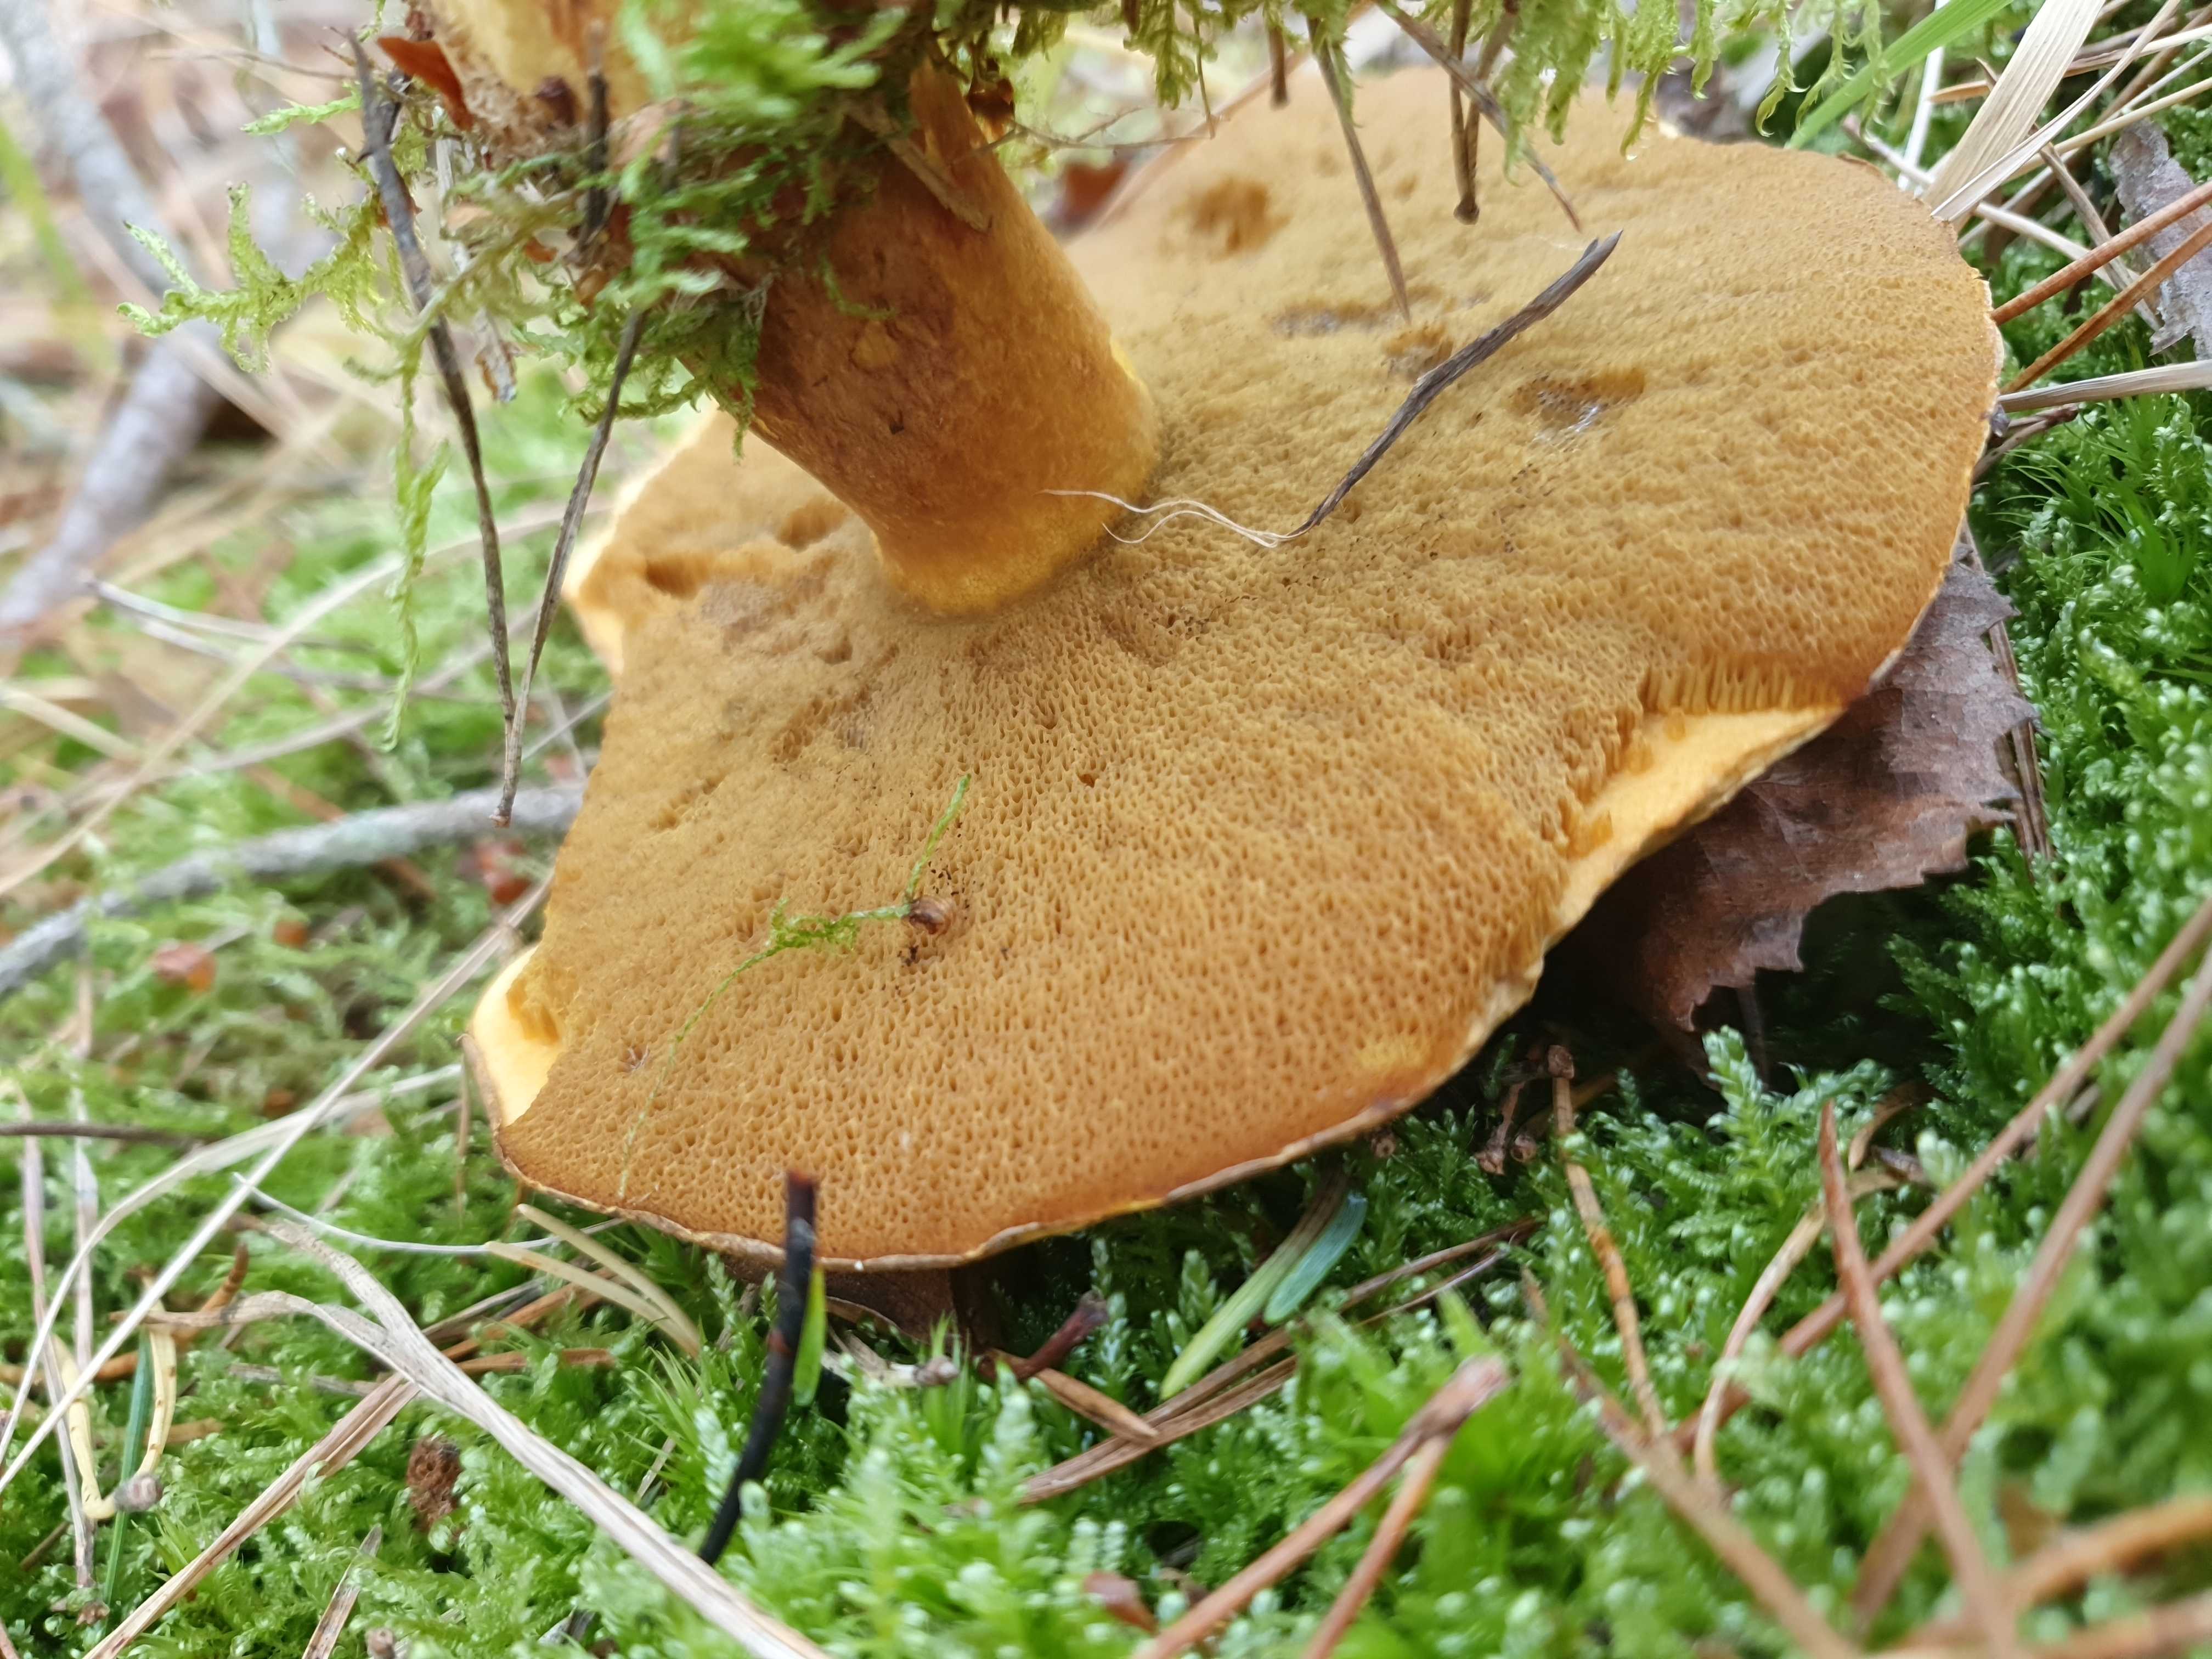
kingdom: Fungi
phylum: Basidiomycota
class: Agaricomycetes
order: Boletales
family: Suillaceae
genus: Suillus
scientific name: Suillus variegatus
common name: broget slimrørhat
